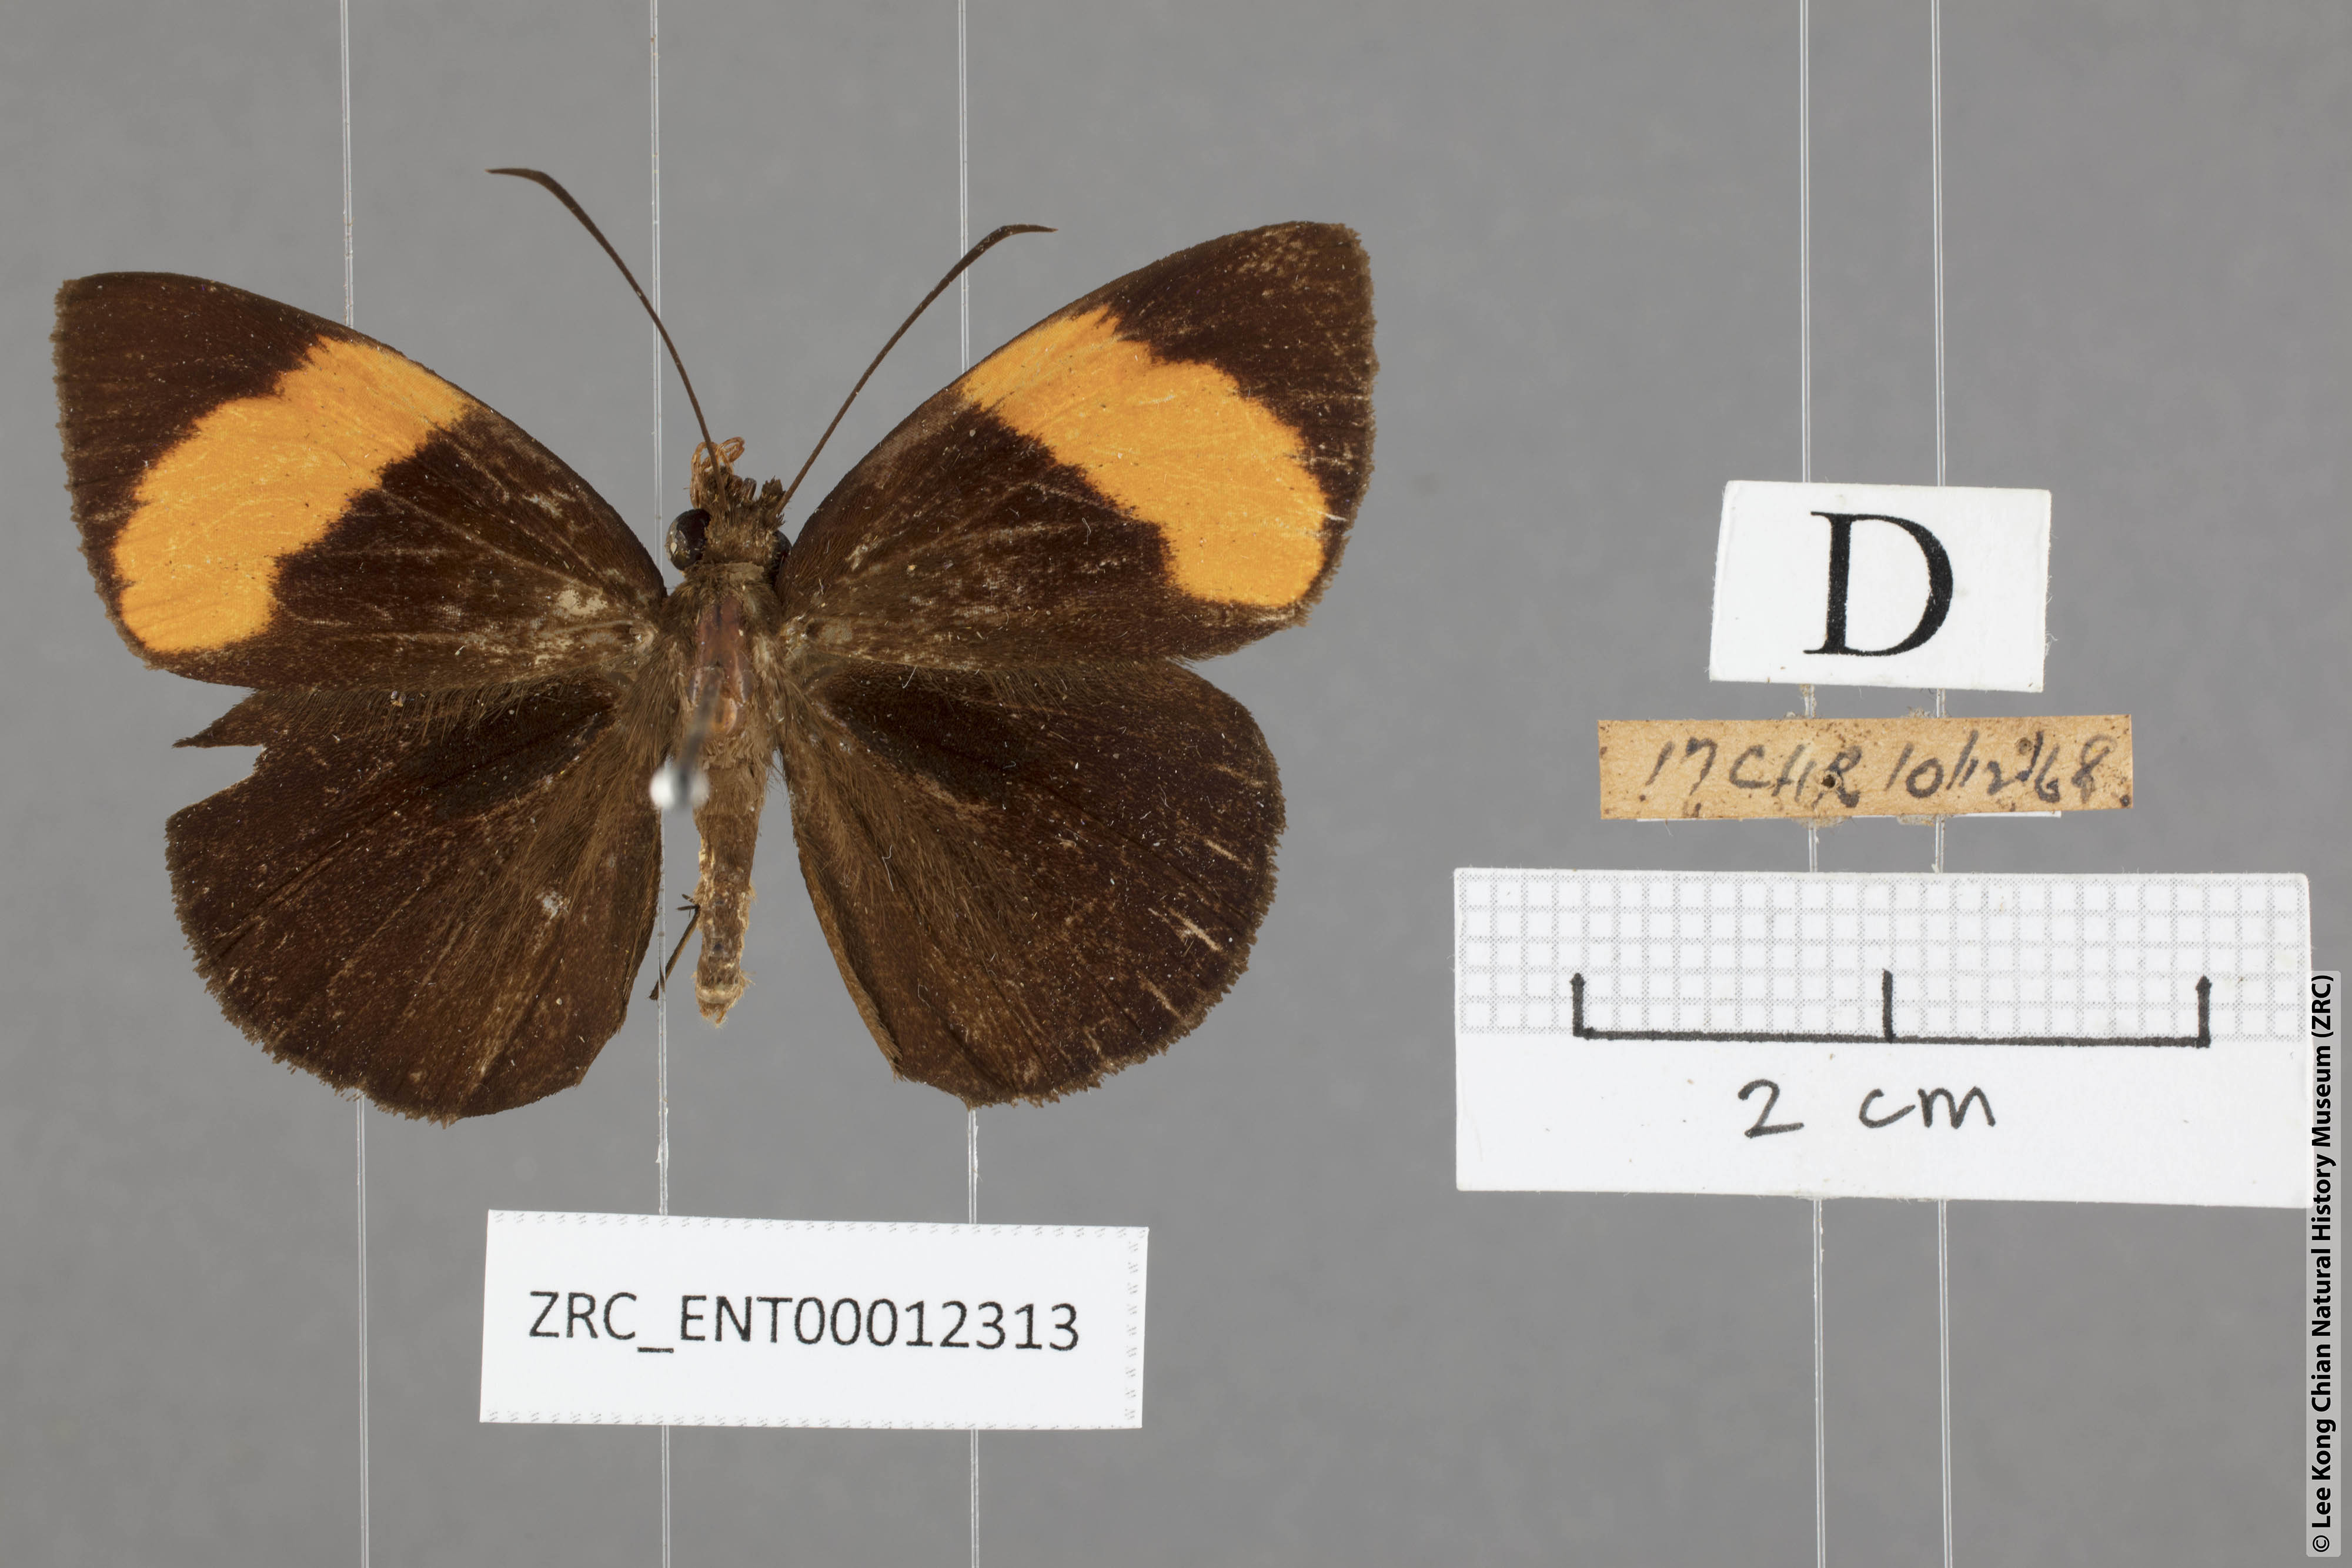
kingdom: Animalia
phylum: Arthropoda
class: Insecta
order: Lepidoptera
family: Hesperiidae
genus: Ancistroides
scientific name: Ancistroides armatus
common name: Red demon
